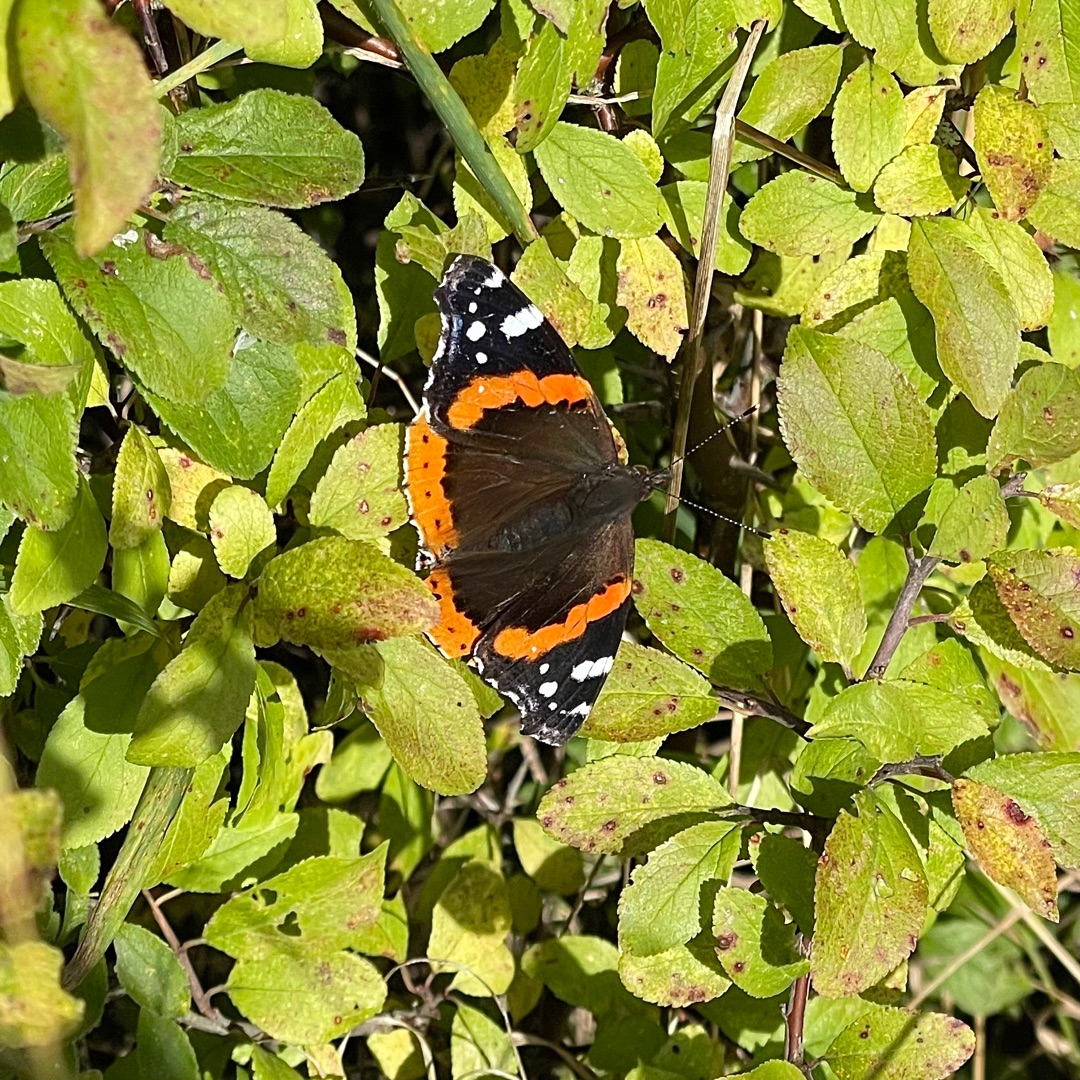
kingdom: Animalia
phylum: Arthropoda
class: Insecta
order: Lepidoptera
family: Nymphalidae
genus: Vanessa
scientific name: Vanessa atalanta
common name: Admiral
